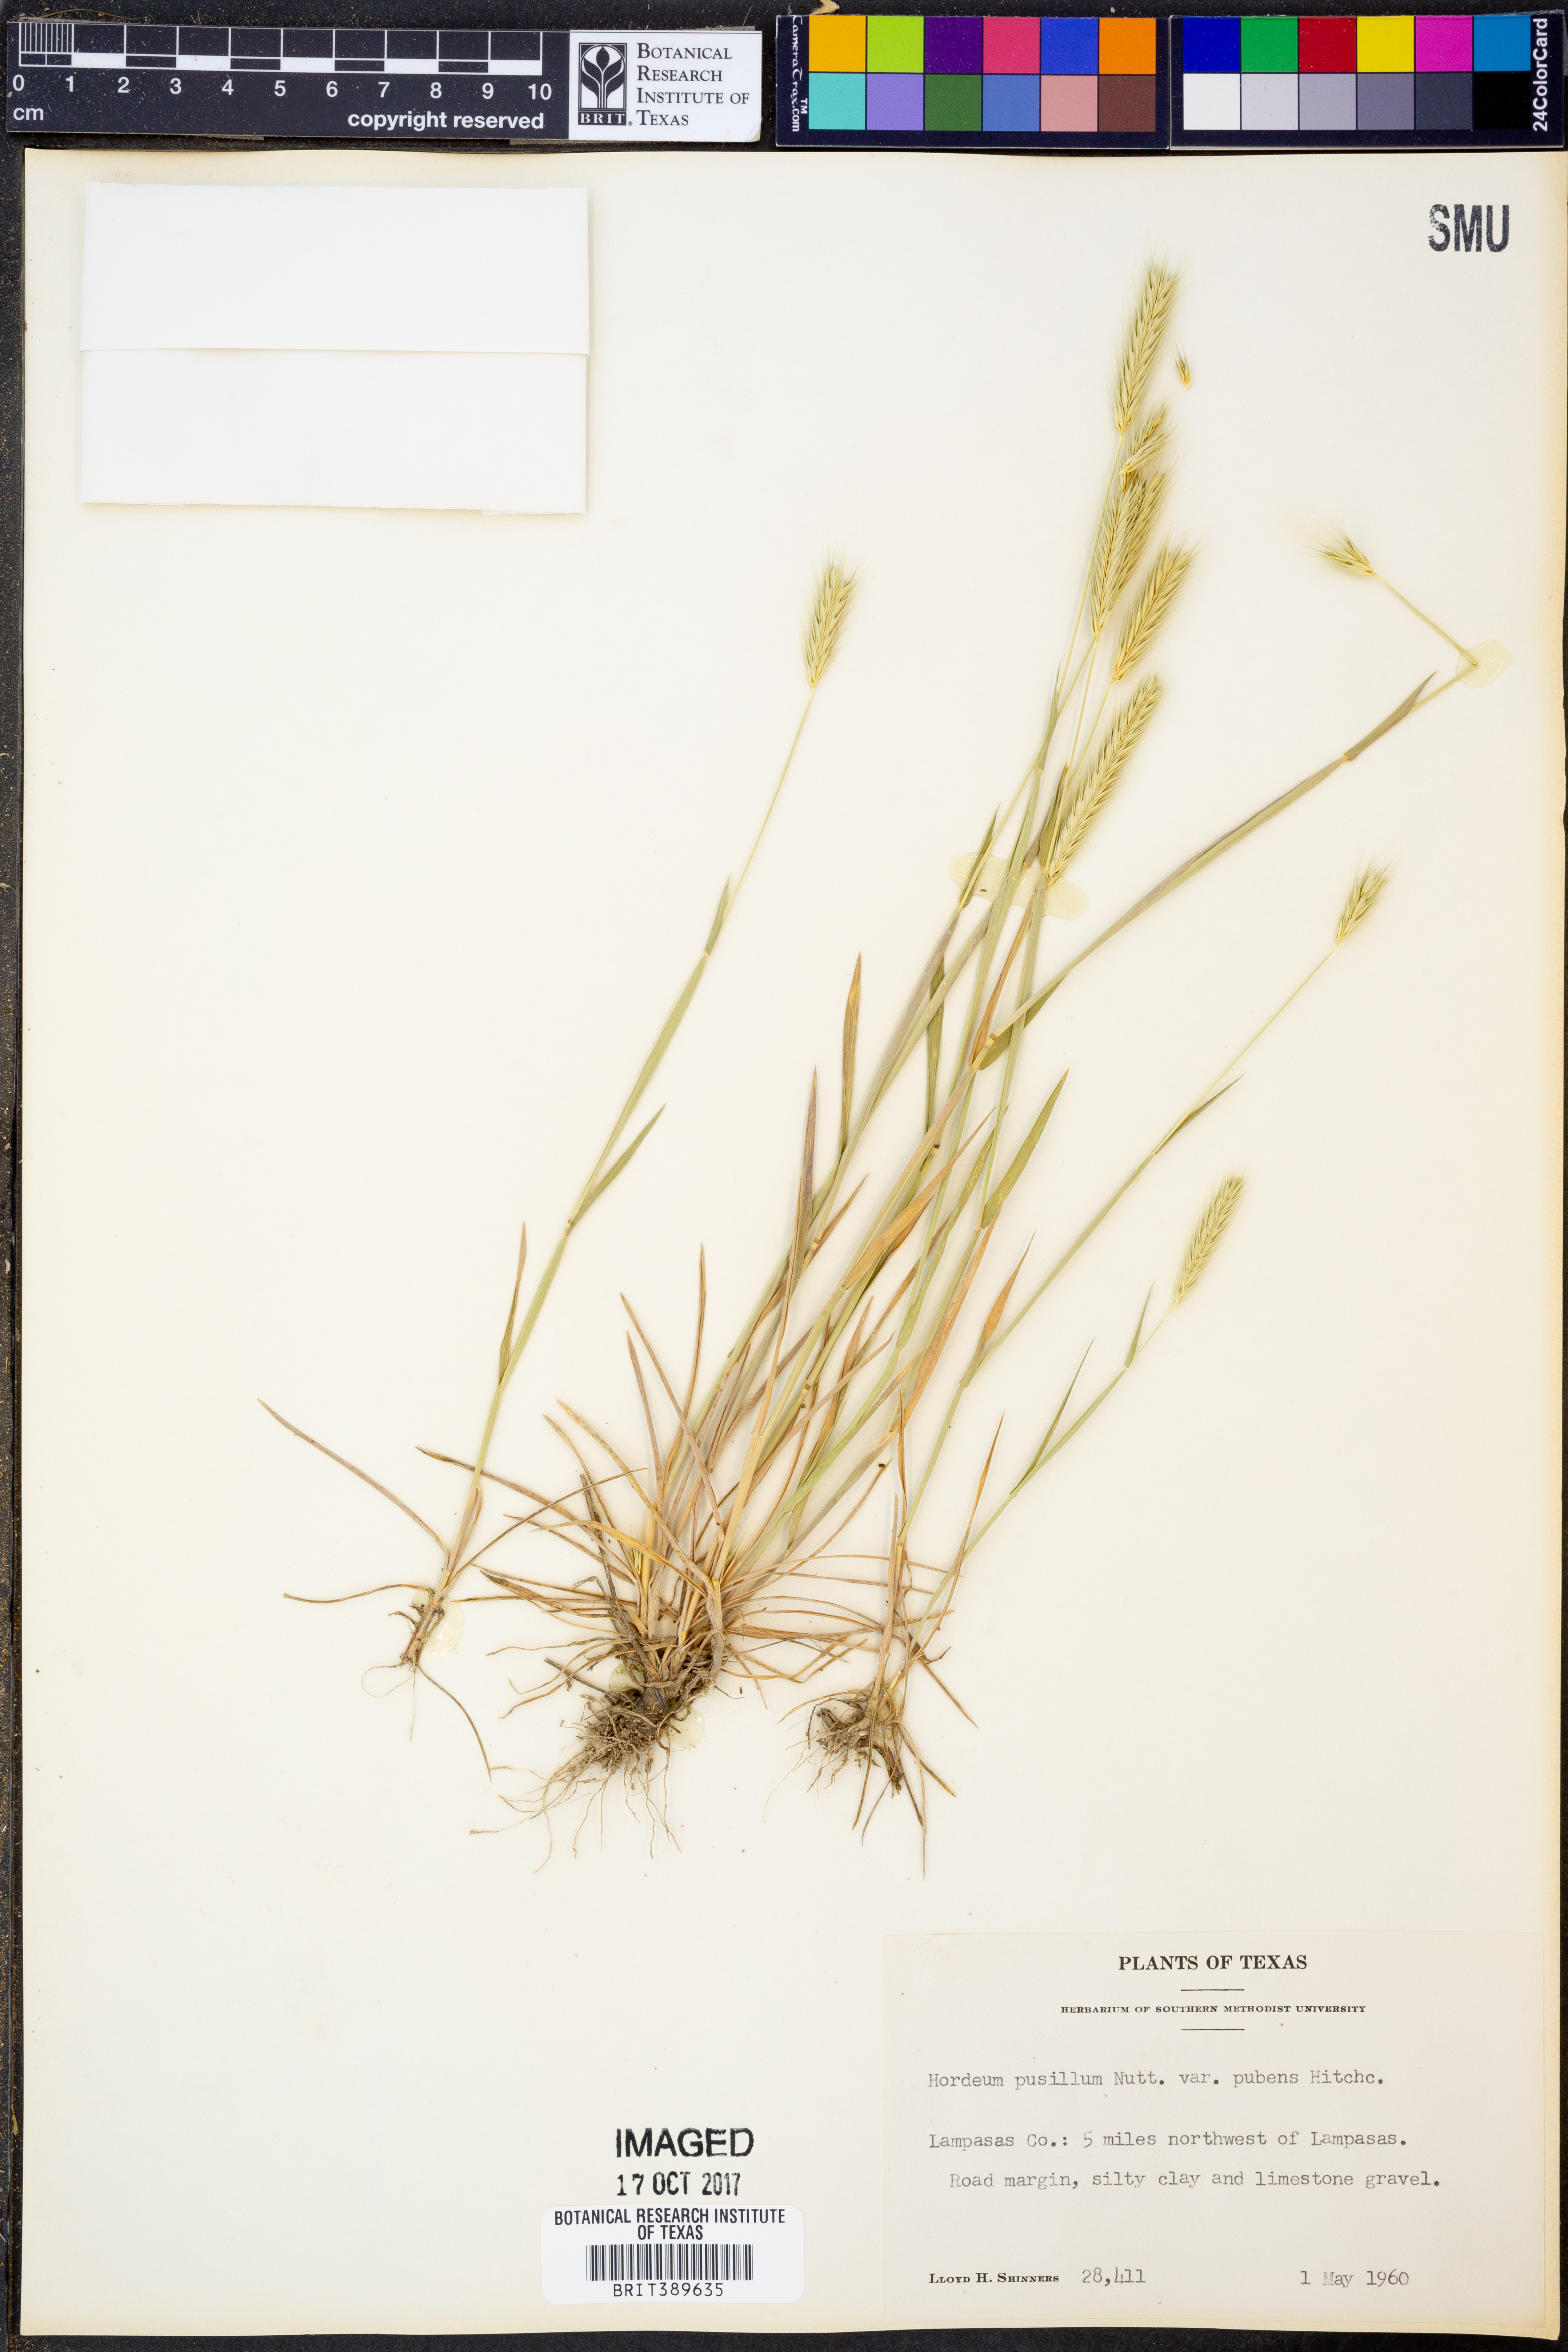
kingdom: Plantae
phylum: Tracheophyta
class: Liliopsida
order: Poales
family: Poaceae
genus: Hordeum
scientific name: Hordeum pusillum
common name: Little barley
